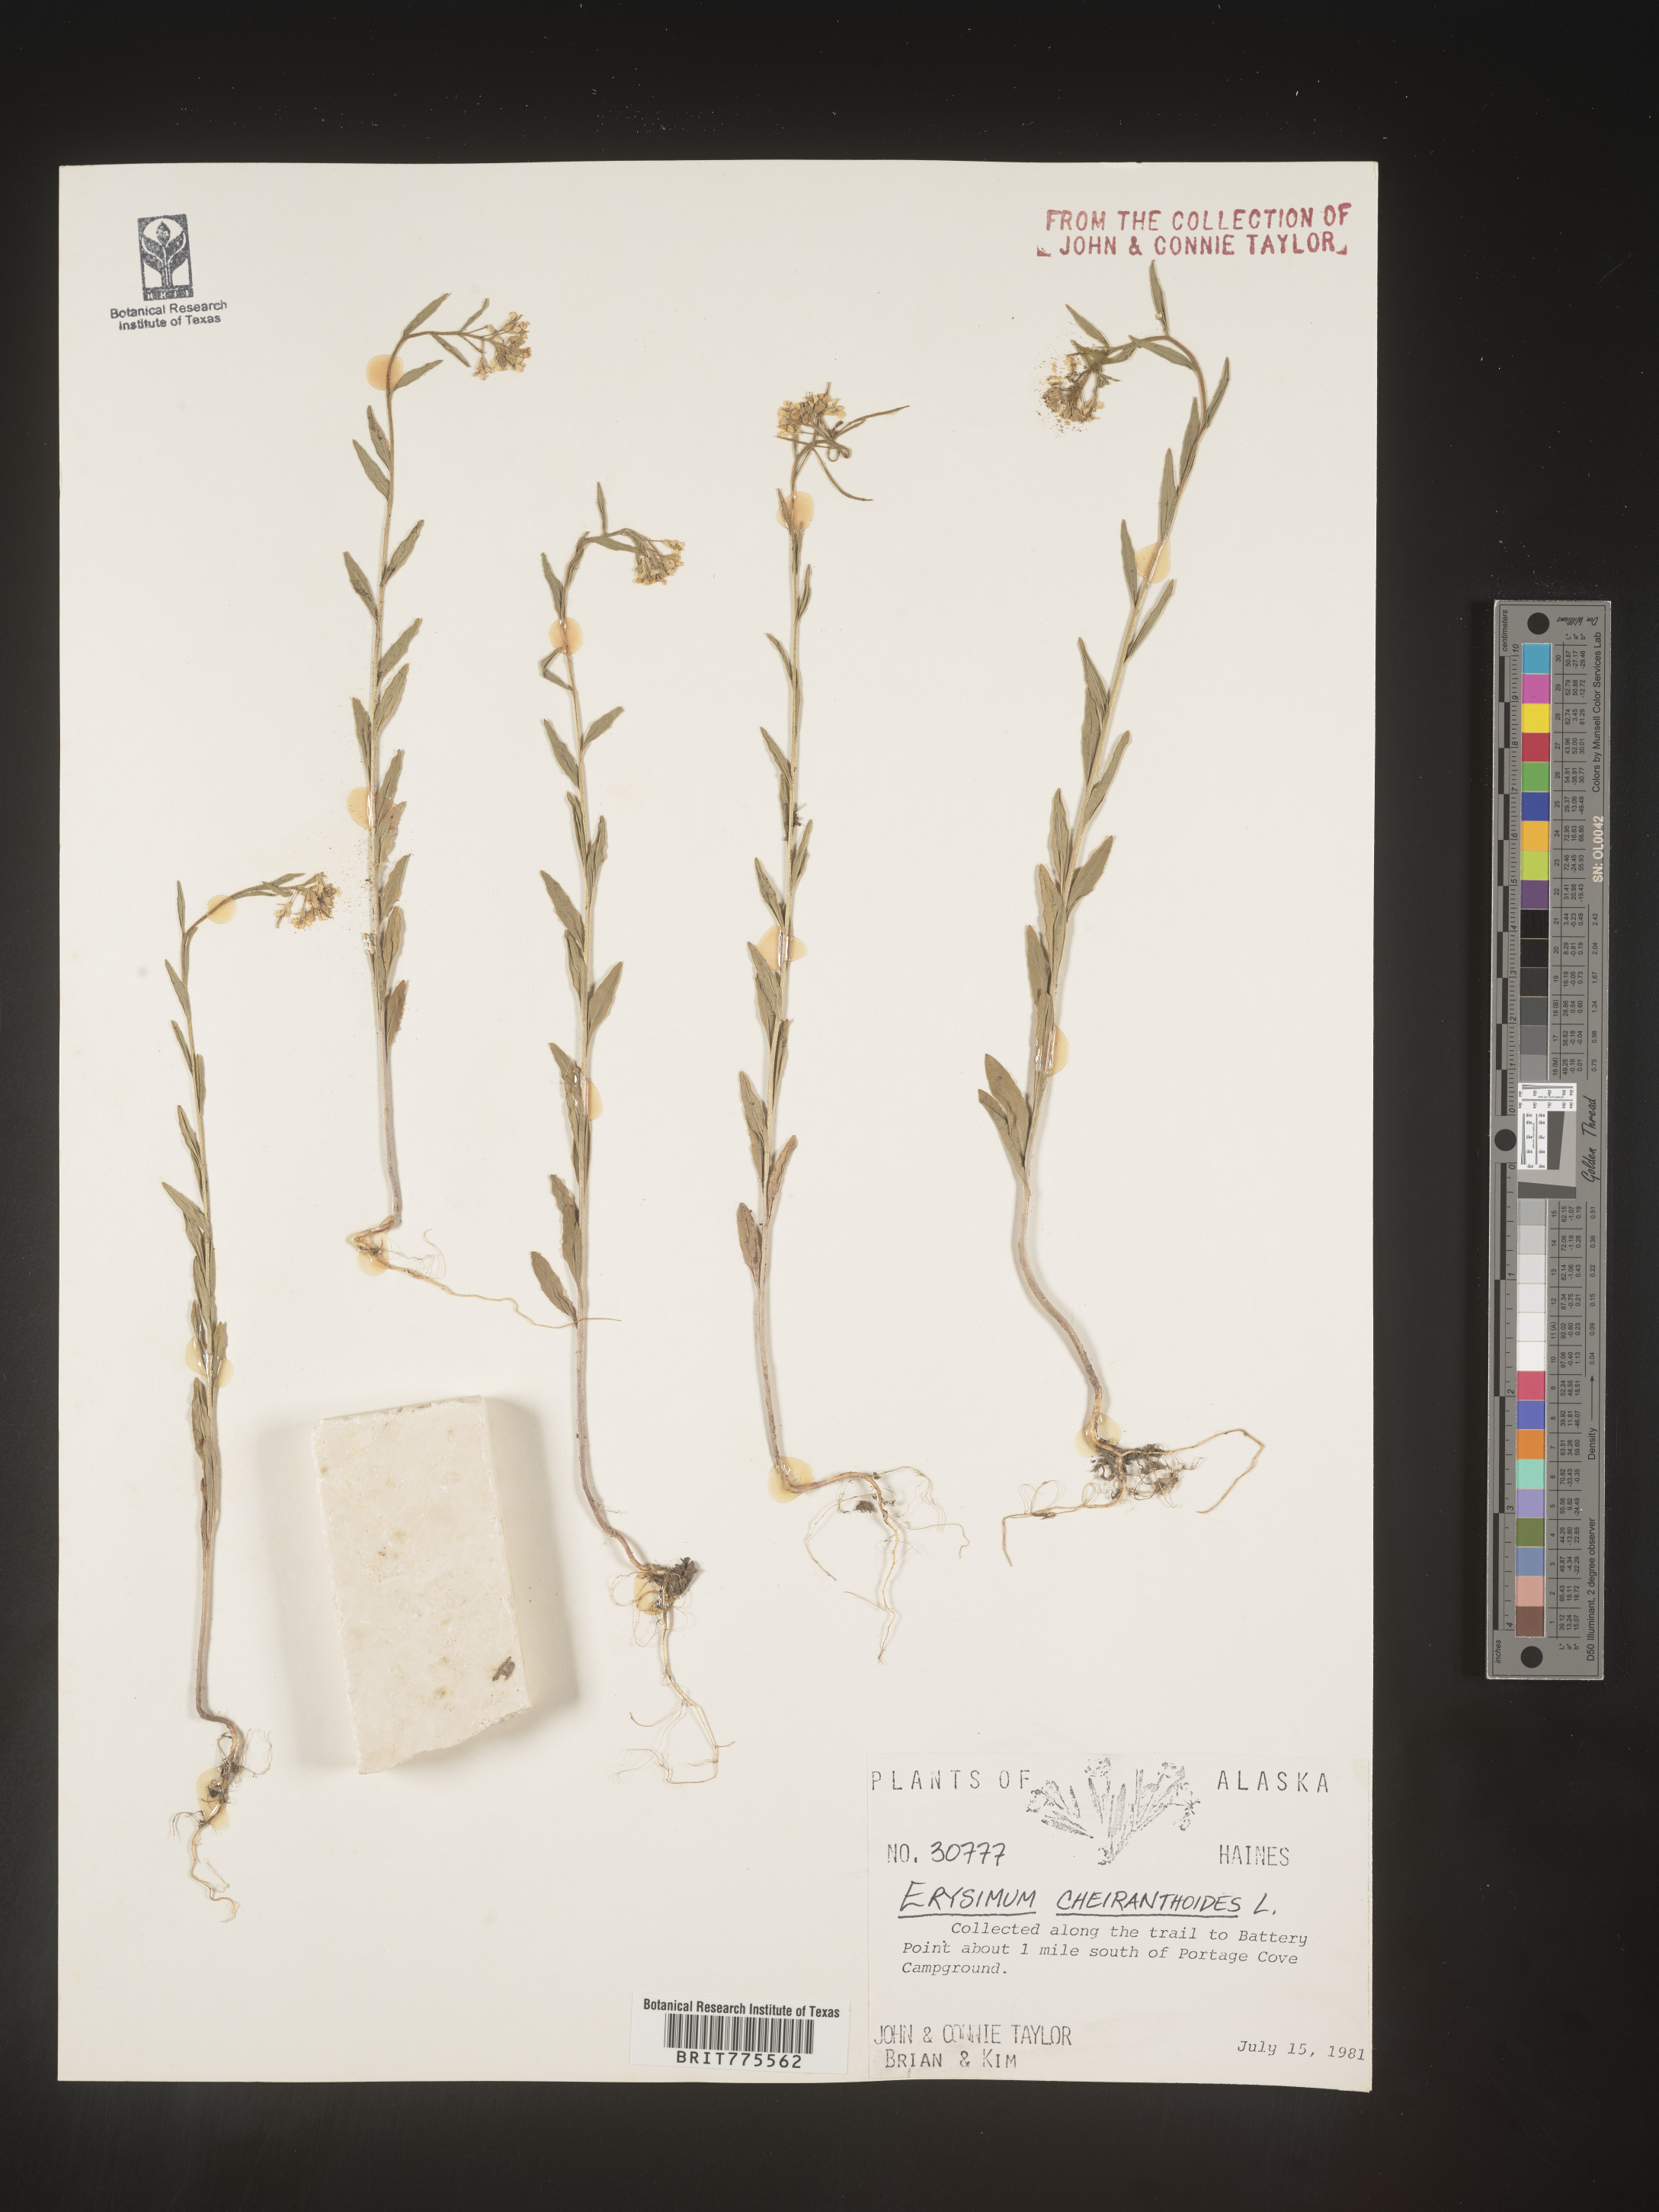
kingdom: Plantae
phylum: Tracheophyta
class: Magnoliopsida
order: Brassicales
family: Brassicaceae
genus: Erysimum
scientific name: Erysimum cheiranthoides
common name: Treacle mustard
